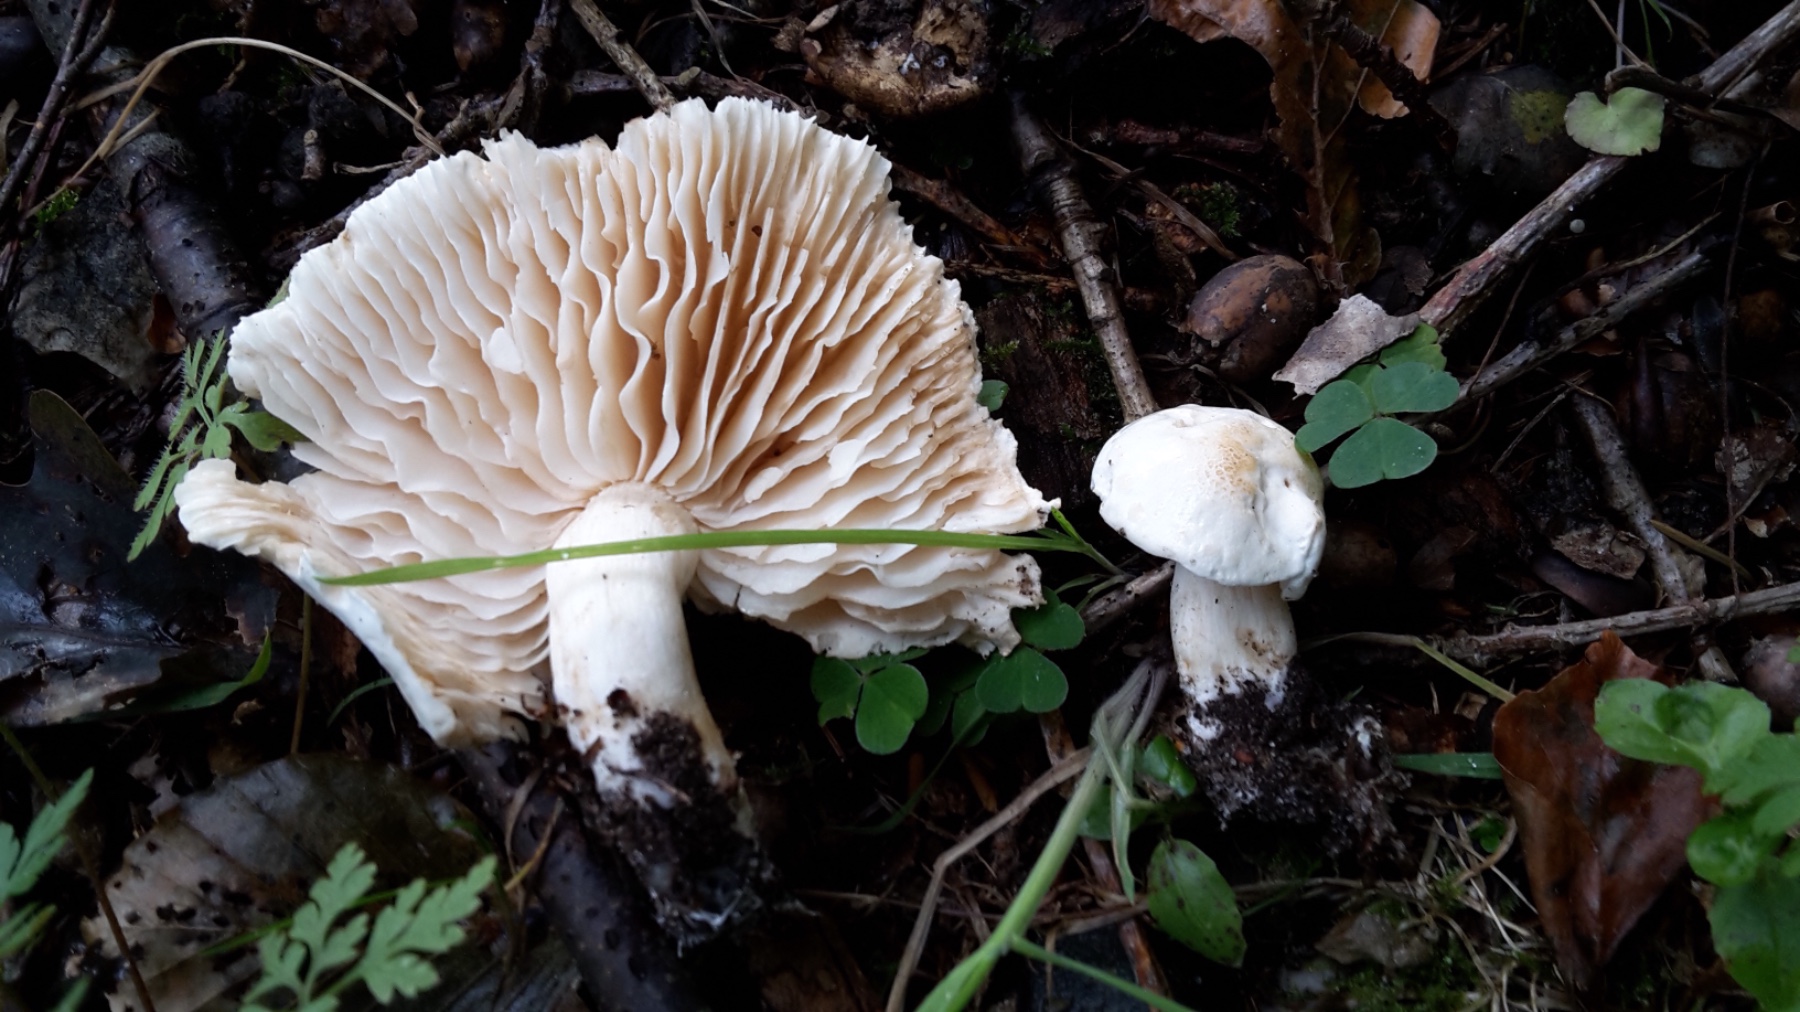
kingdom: Fungi
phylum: Basidiomycota
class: Agaricomycetes
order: Agaricales
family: Tricholomataceae
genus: Tricholoma
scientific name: Tricholoma album
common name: honning-ridderhat
